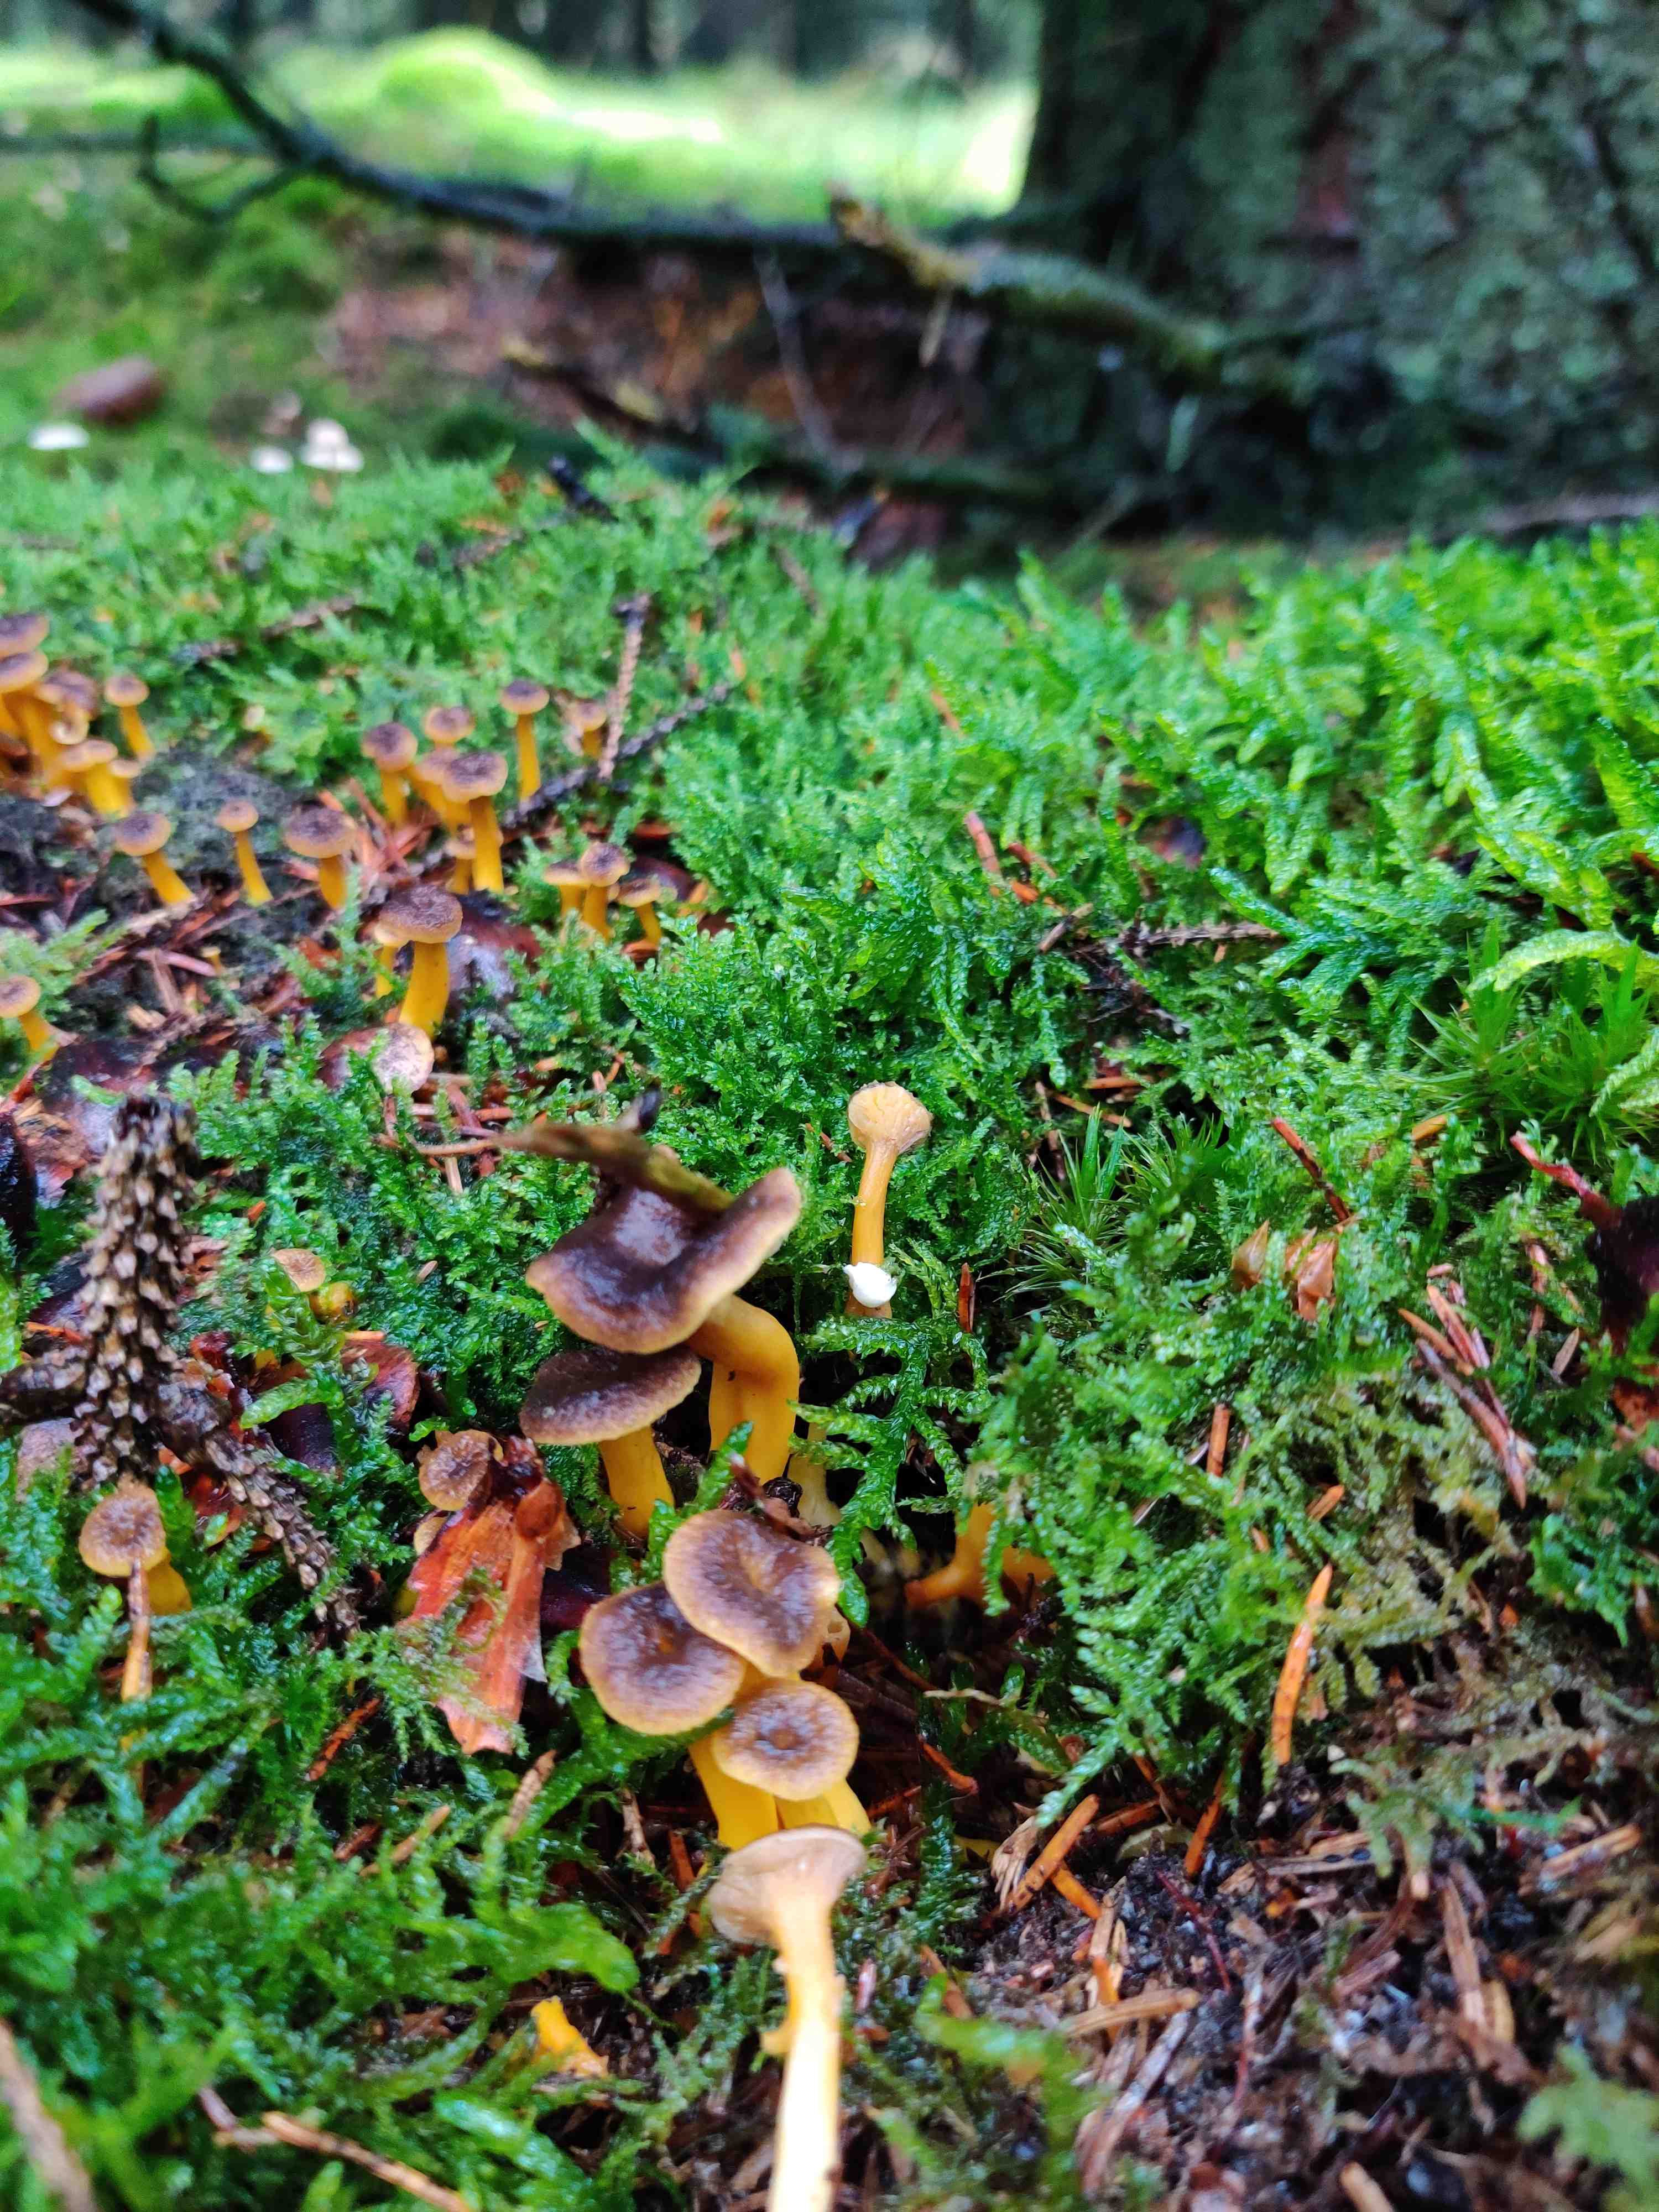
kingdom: Fungi
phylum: Basidiomycota
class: Agaricomycetes
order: Cantharellales
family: Hydnaceae
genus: Craterellus
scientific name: Craterellus tubaeformis
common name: tragt-kantarel
